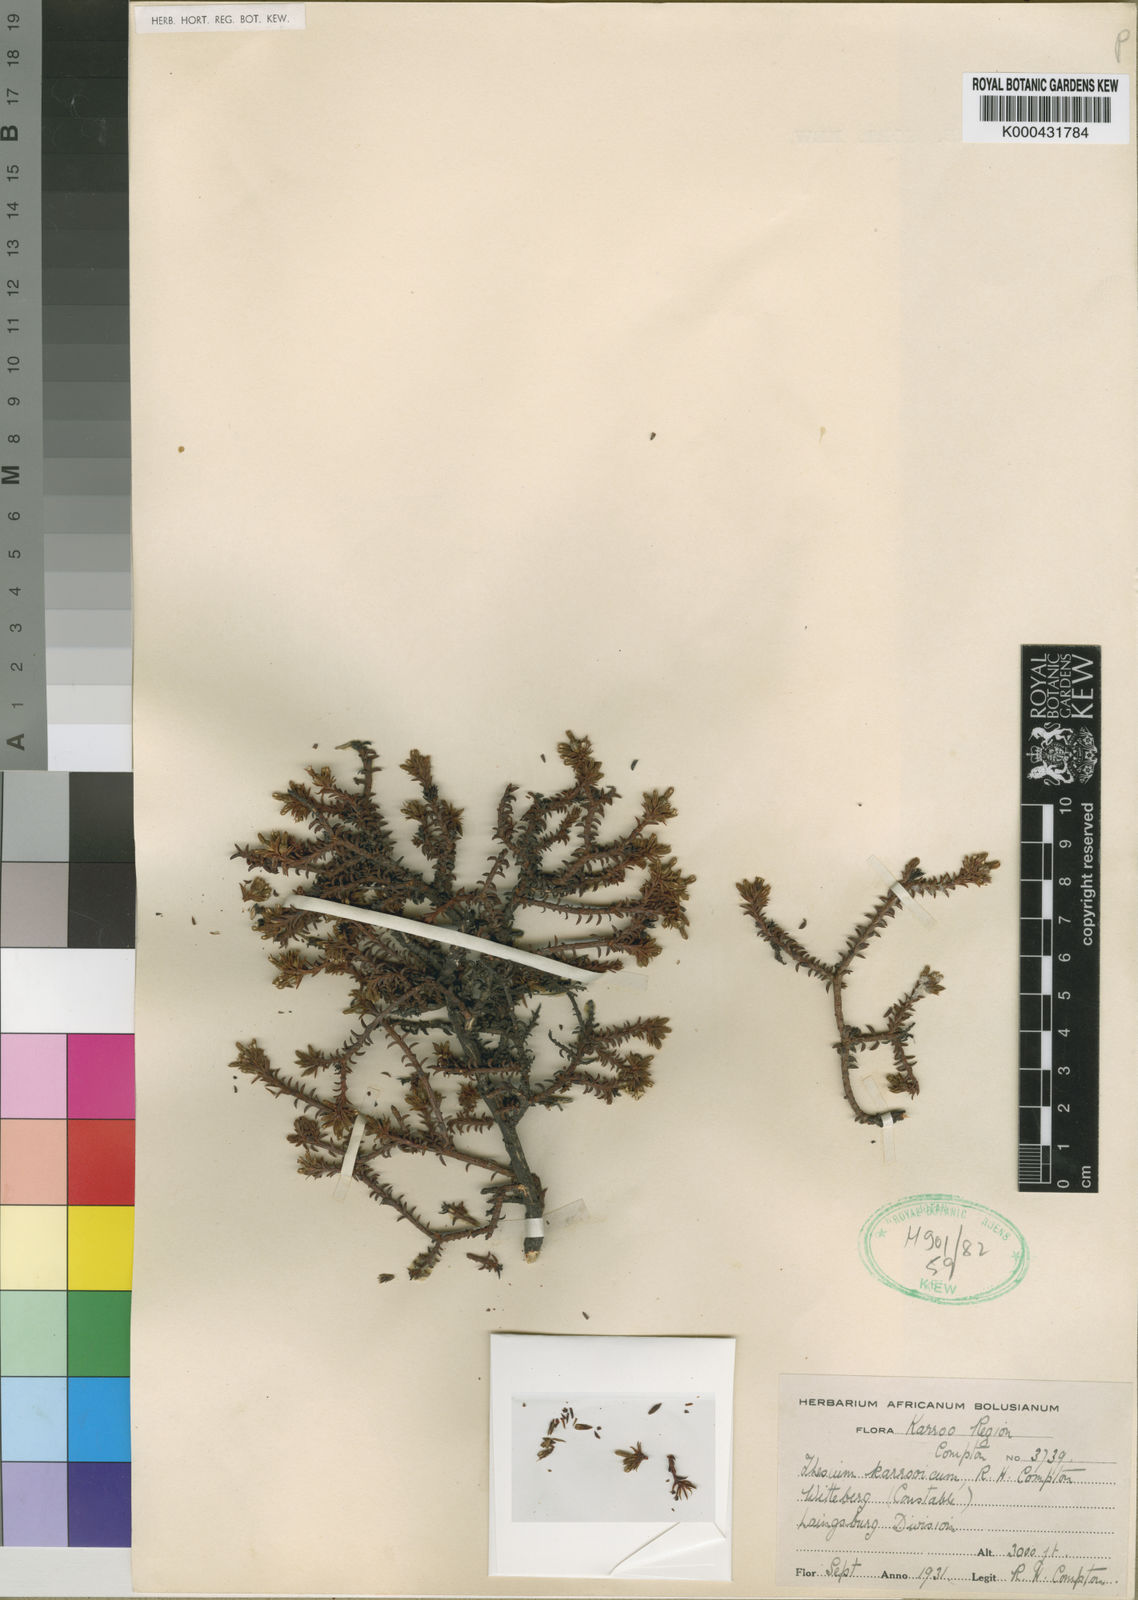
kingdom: Plantae
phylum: Tracheophyta
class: Magnoliopsida
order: Santalales
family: Thesiaceae
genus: Thesium
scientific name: Thesium karooicum
